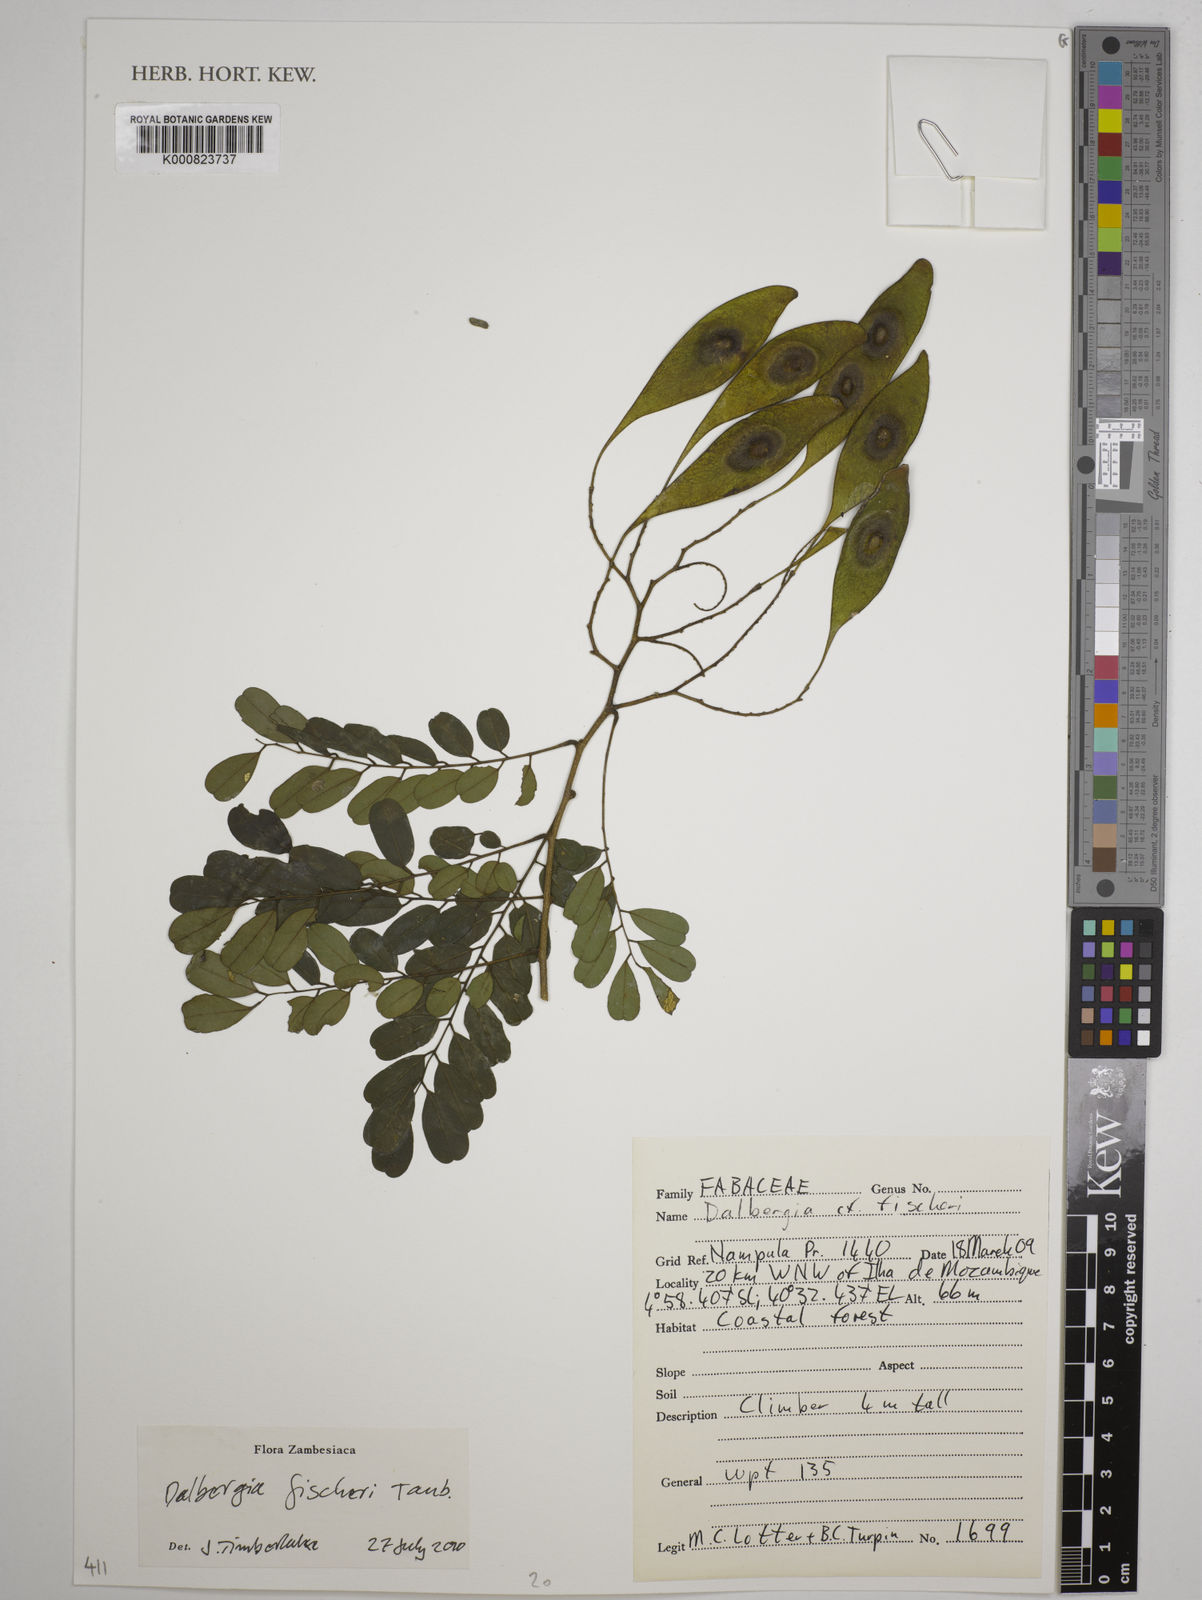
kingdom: Plantae
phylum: Tracheophyta
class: Magnoliopsida
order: Fabales
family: Fabaceae
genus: Dalbergia
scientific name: Dalbergia fischeri
